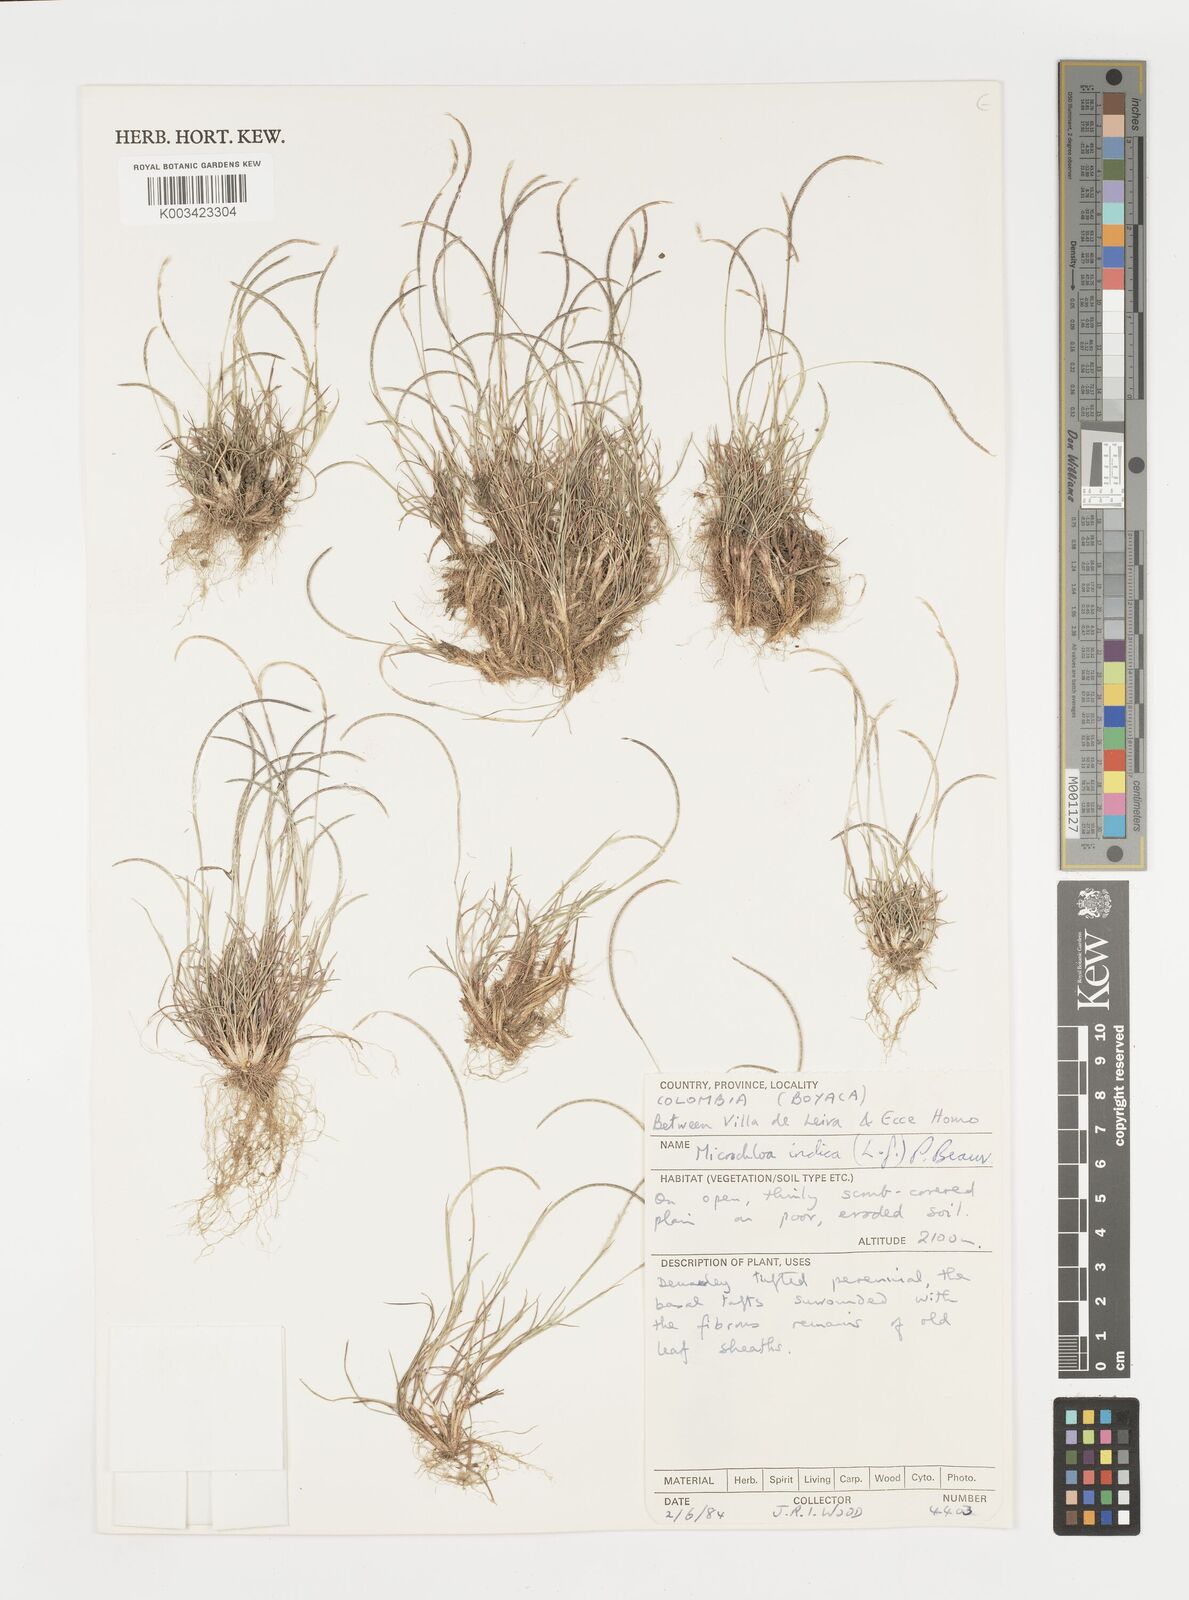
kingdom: Plantae
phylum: Tracheophyta
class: Liliopsida
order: Poales
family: Poaceae
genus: Microchloa
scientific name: Microchloa indica
